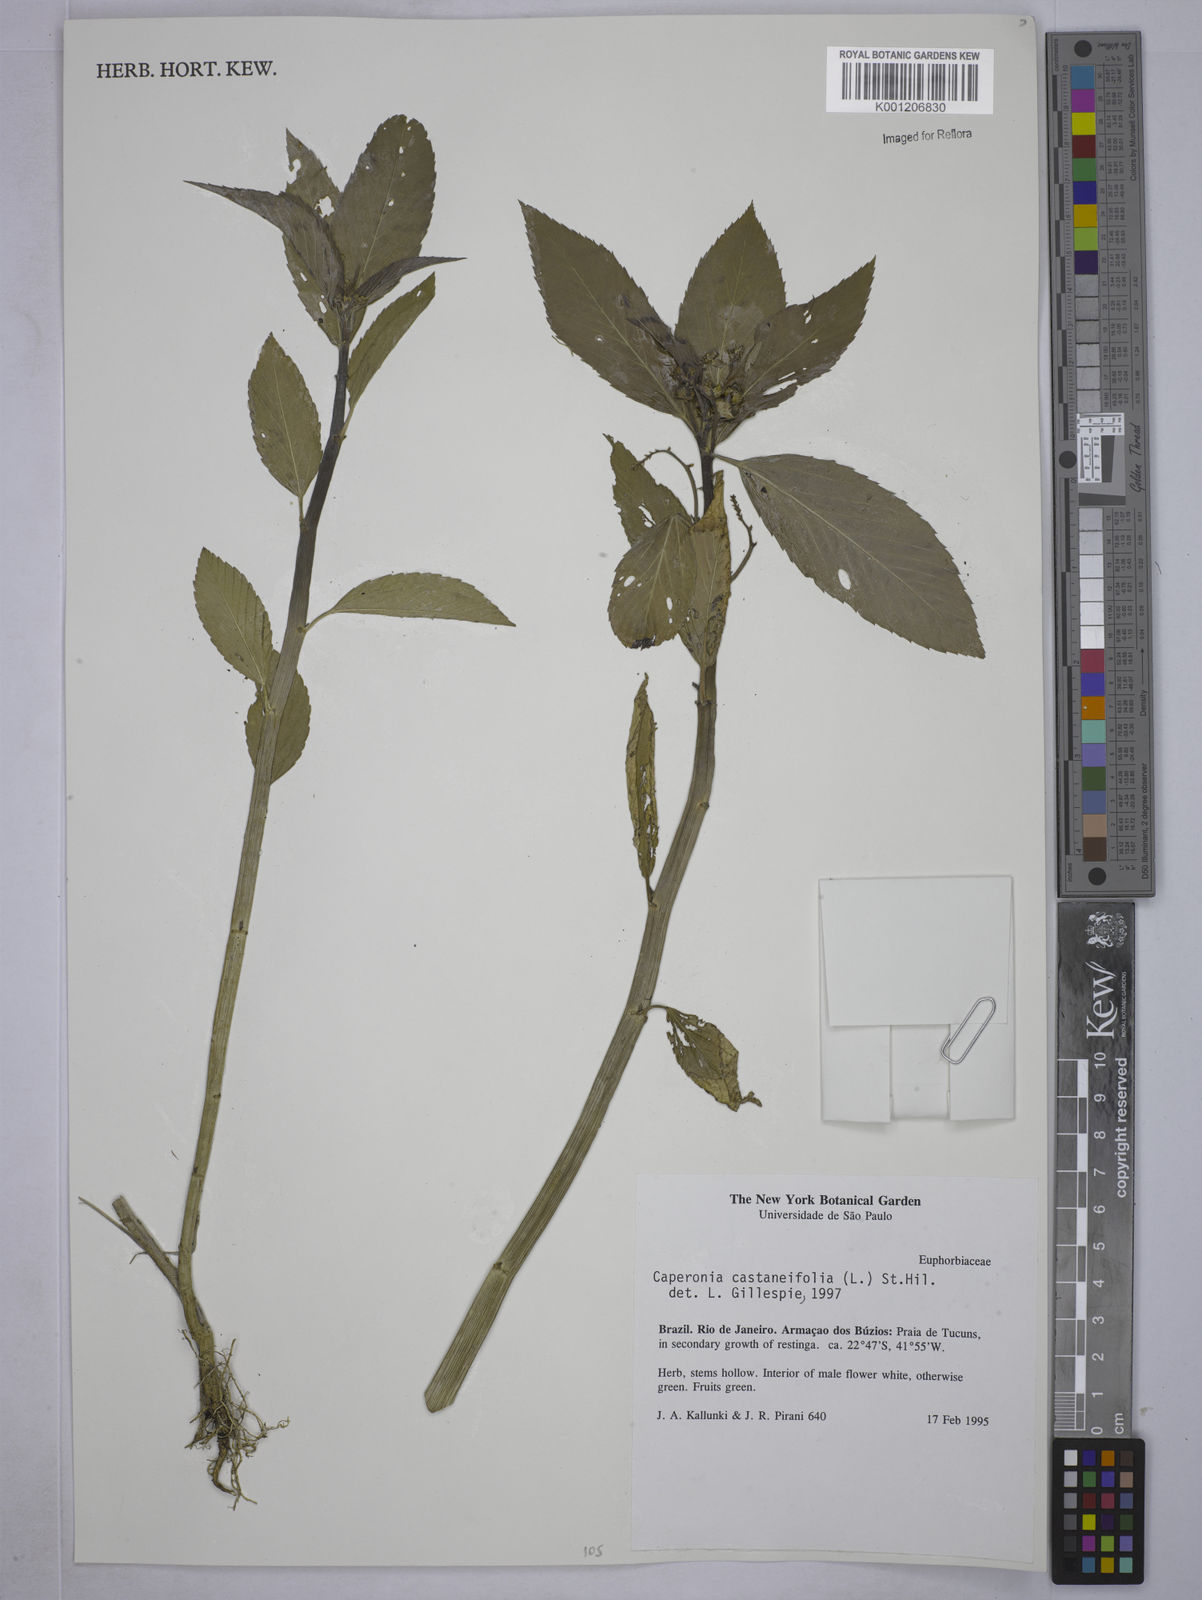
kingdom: Plantae
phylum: Tracheophyta
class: Magnoliopsida
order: Malpighiales
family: Euphorbiaceae
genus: Caperonia
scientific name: Caperonia castaneifolia
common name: Chestnutleaf false croton
